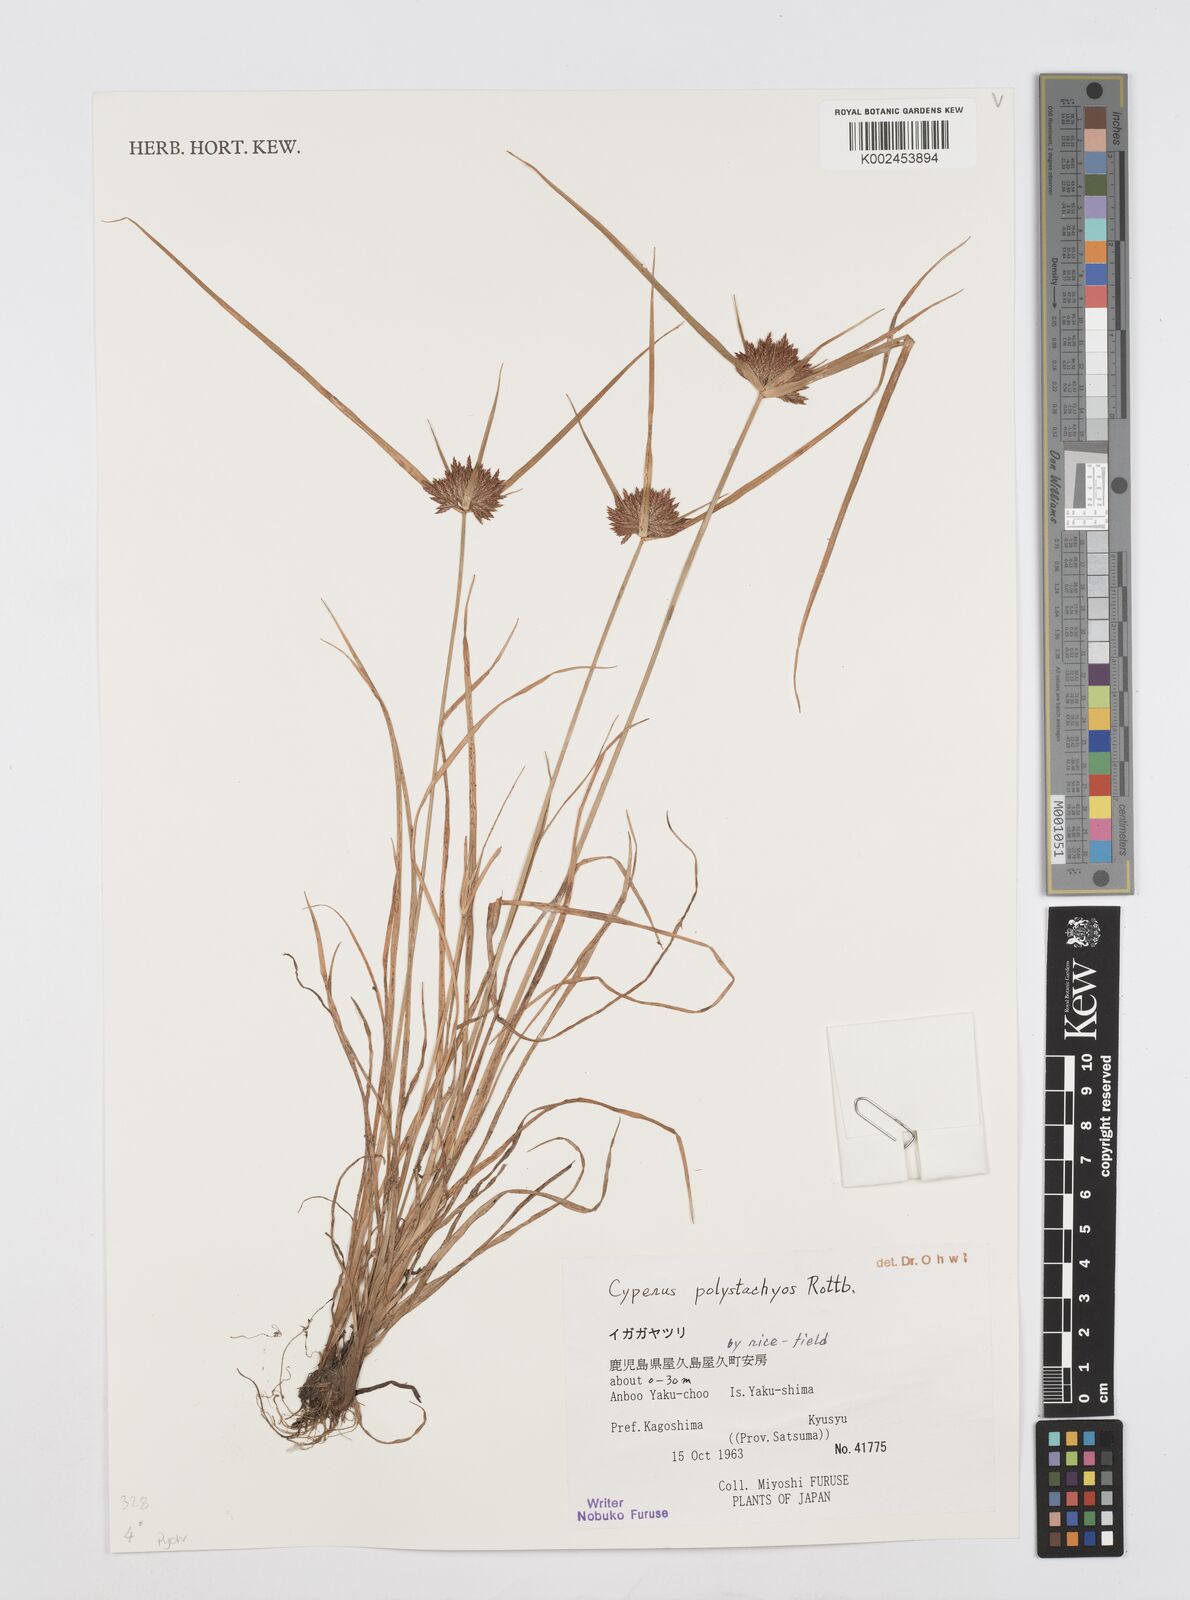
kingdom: Plantae
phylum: Tracheophyta
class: Liliopsida
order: Poales
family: Cyperaceae
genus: Cyperus
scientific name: Cyperus polystachyos
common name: Bunchy flat sedge
